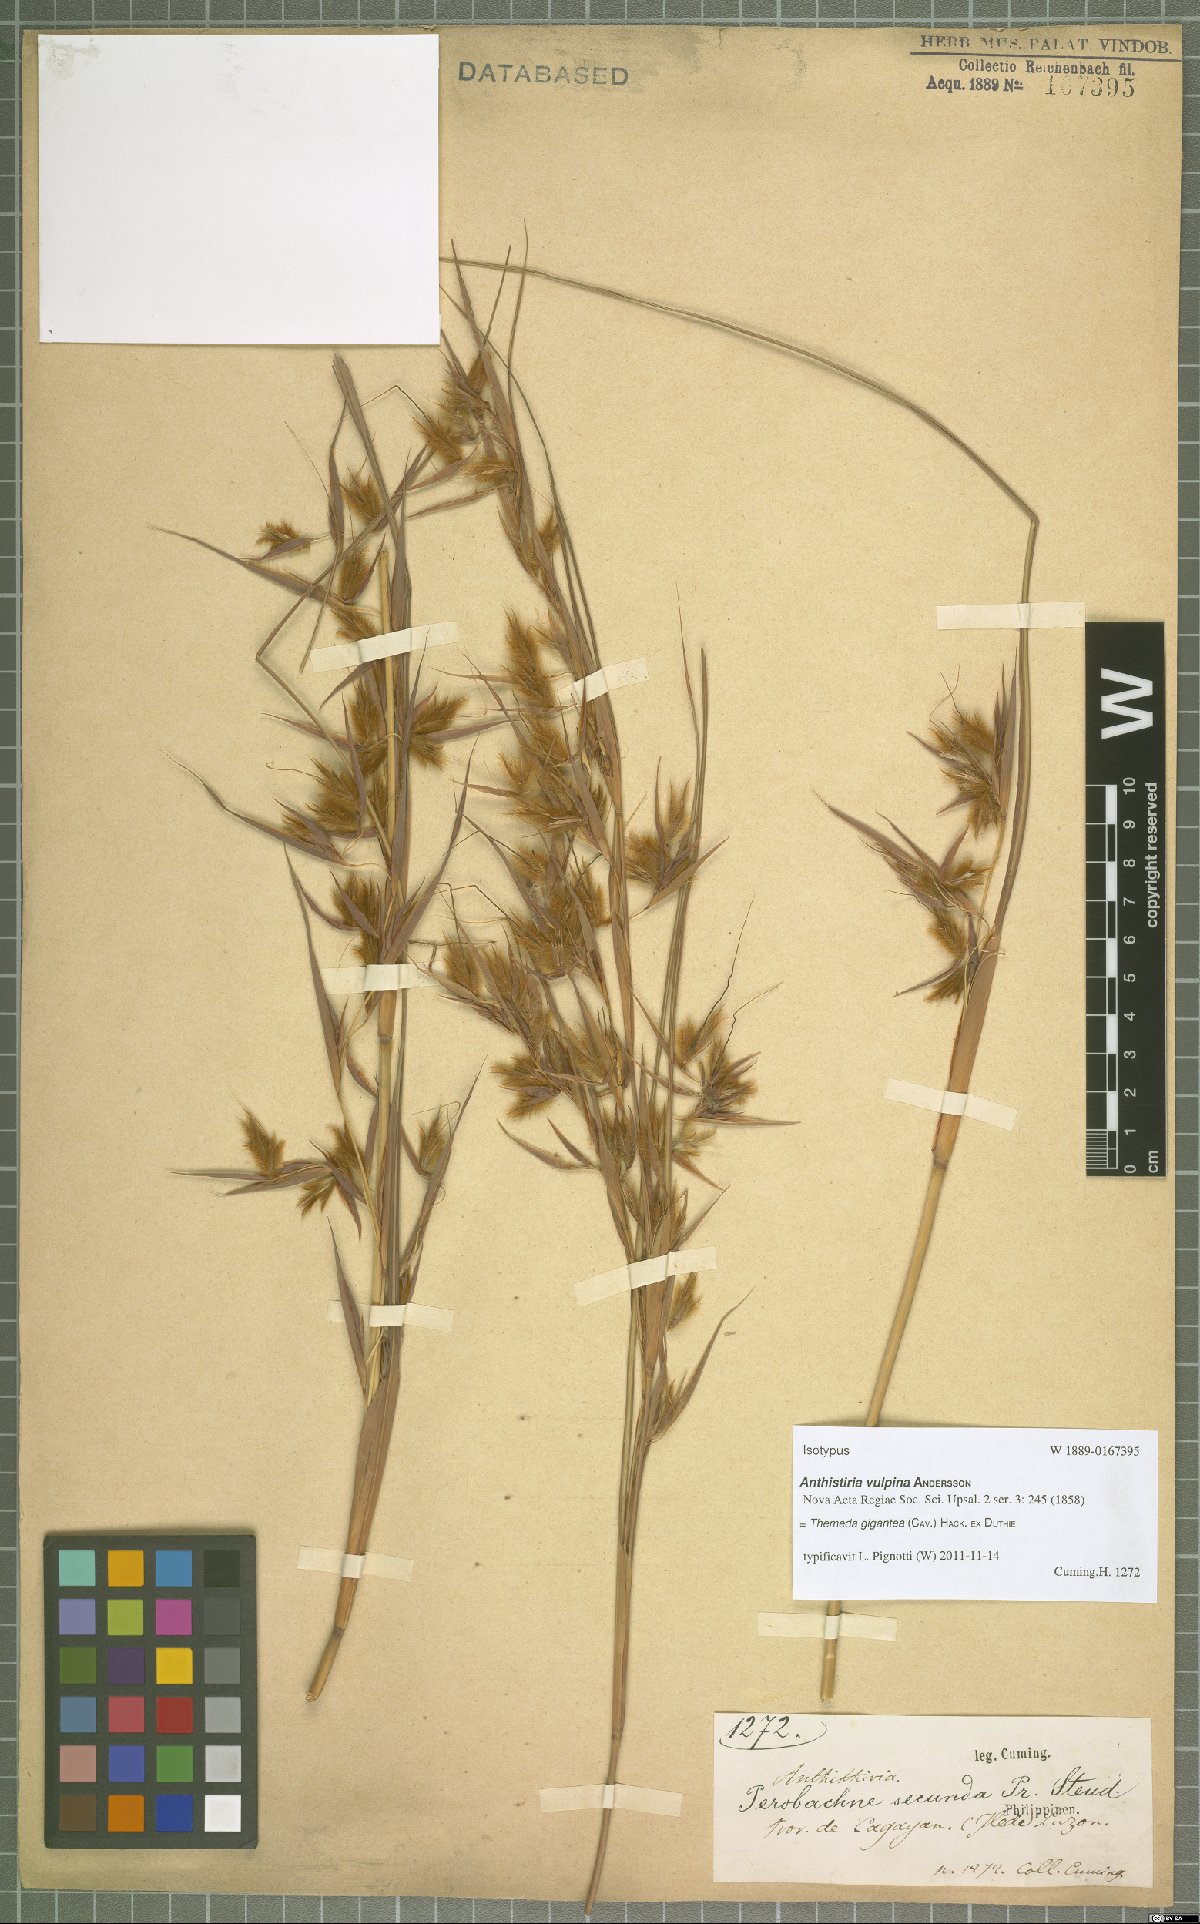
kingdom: Plantae
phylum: Tracheophyta
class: Liliopsida
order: Poales
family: Poaceae
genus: Themeda
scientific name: Themeda gigantea
